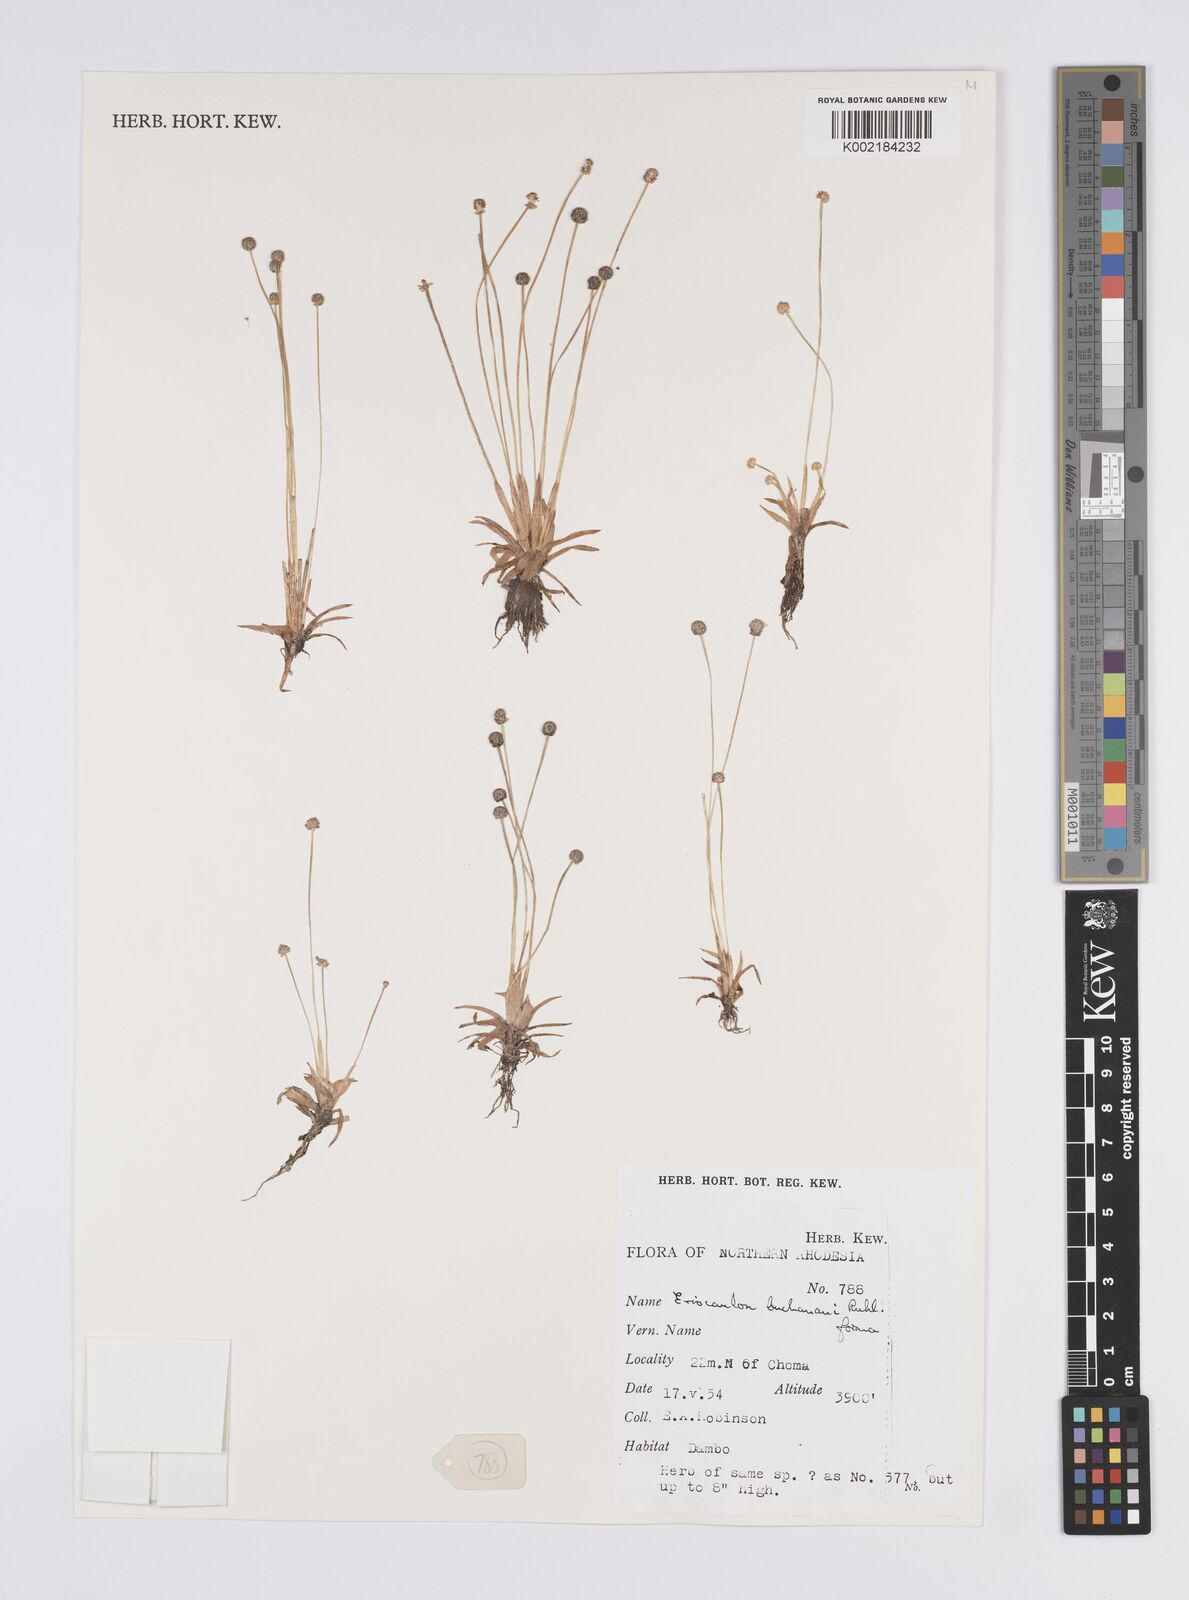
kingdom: Plantae
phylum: Tracheophyta
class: Liliopsida
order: Poales
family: Eriocaulaceae
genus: Eriocaulon
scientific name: Eriocaulon buchananii
